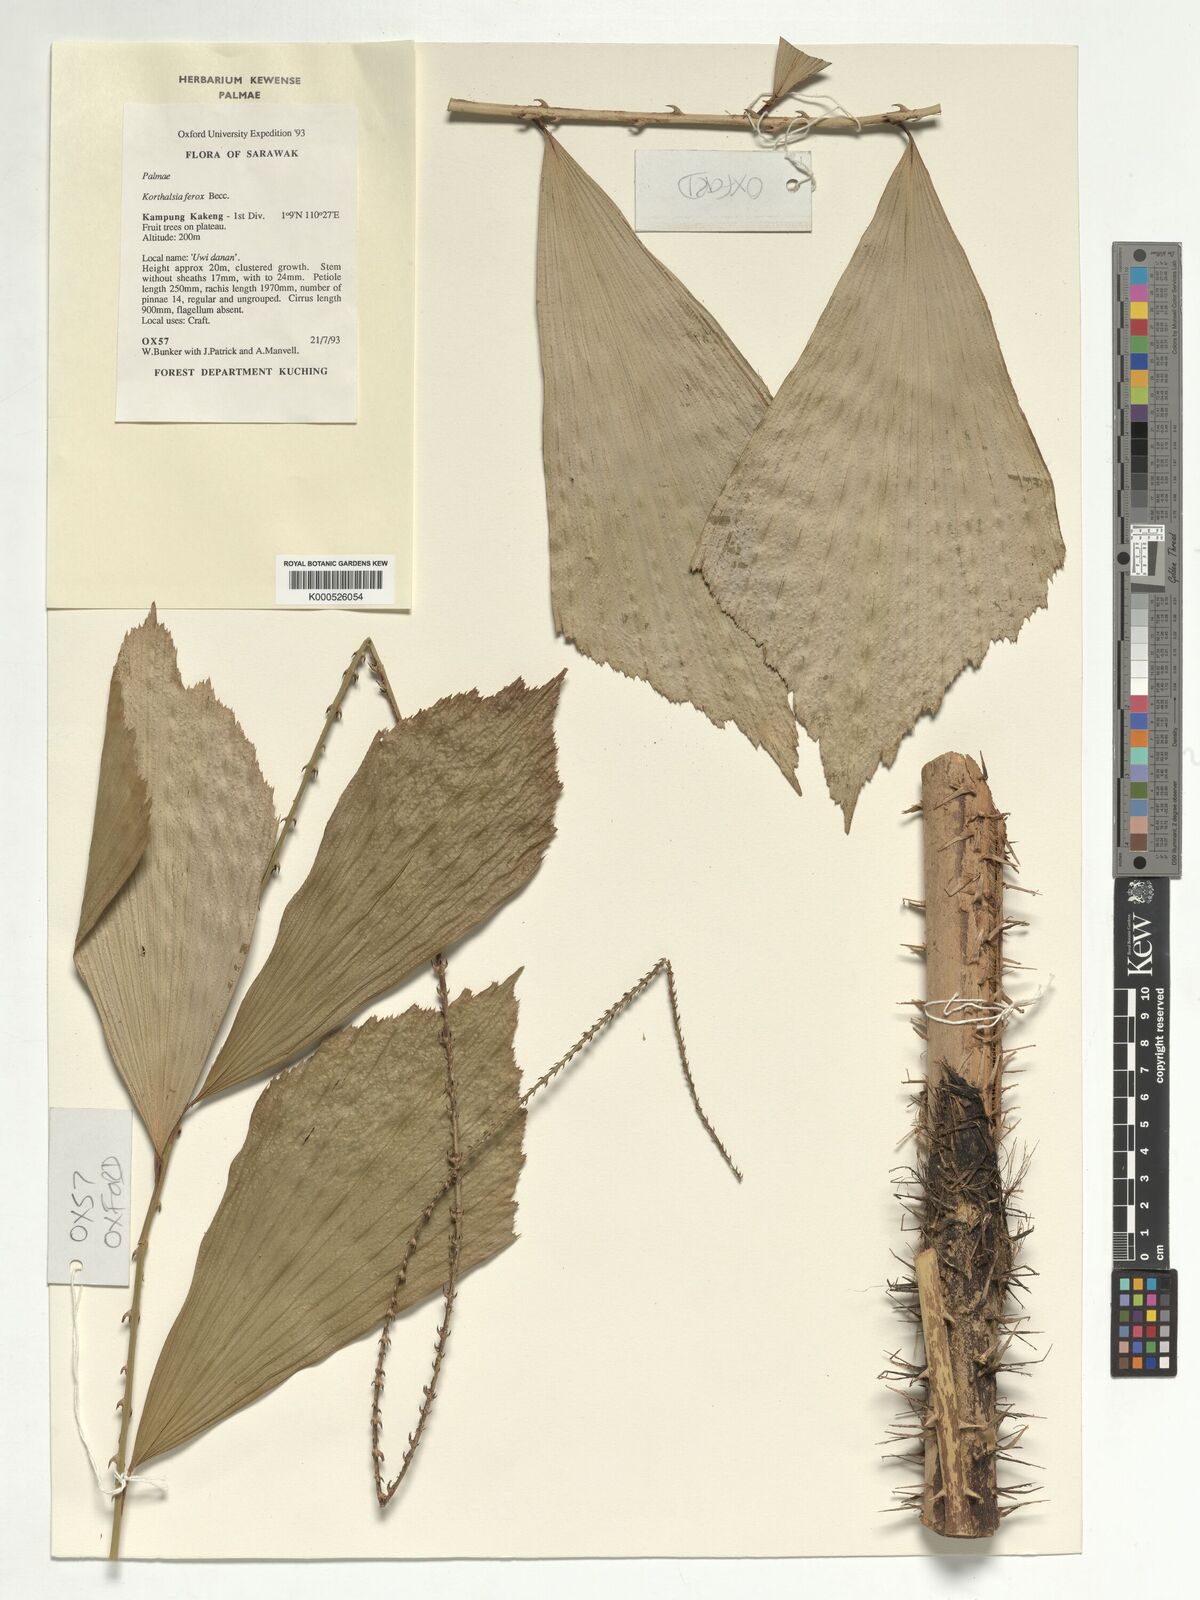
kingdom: Plantae
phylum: Tracheophyta
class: Liliopsida
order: Arecales
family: Arecaceae
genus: Korthalsia
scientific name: Korthalsia ferox
